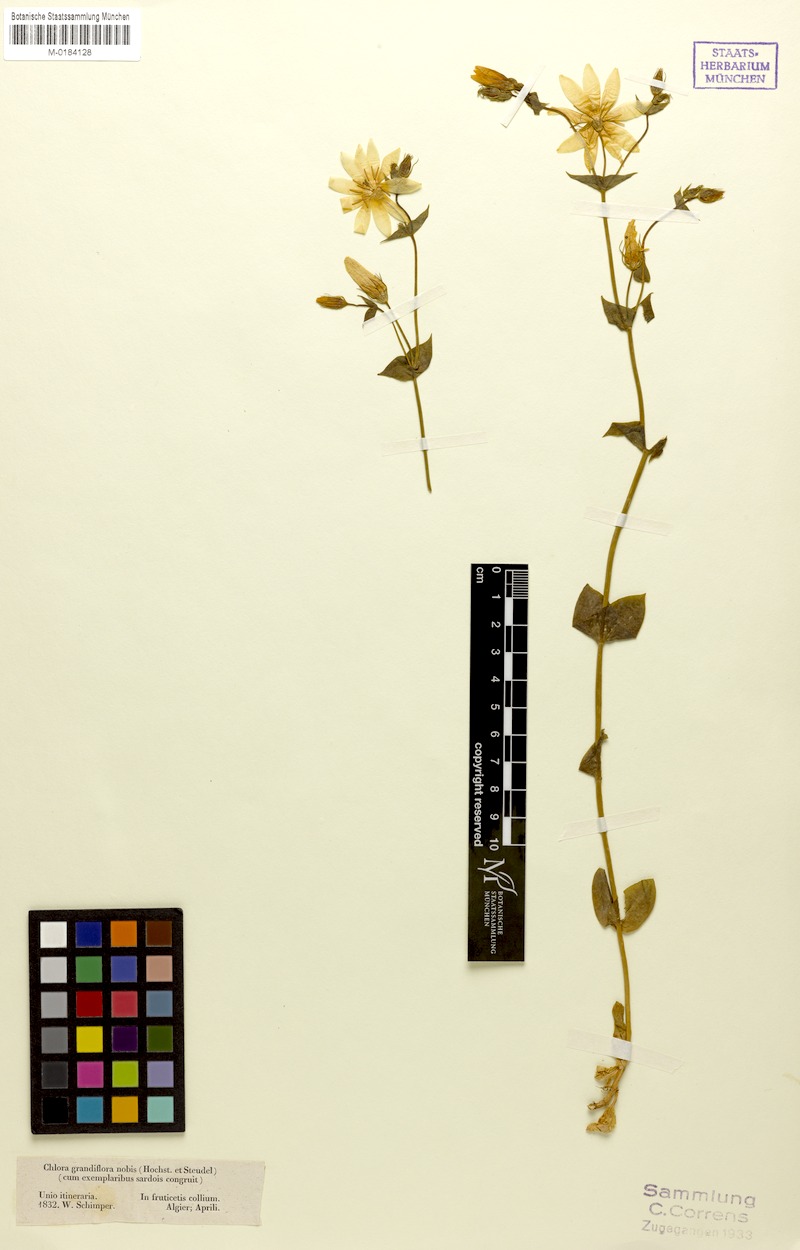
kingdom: Plantae
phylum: Tracheophyta
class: Magnoliopsida
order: Gentianales
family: Gentianaceae
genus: Blackstonia
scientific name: Blackstonia grandiflora
